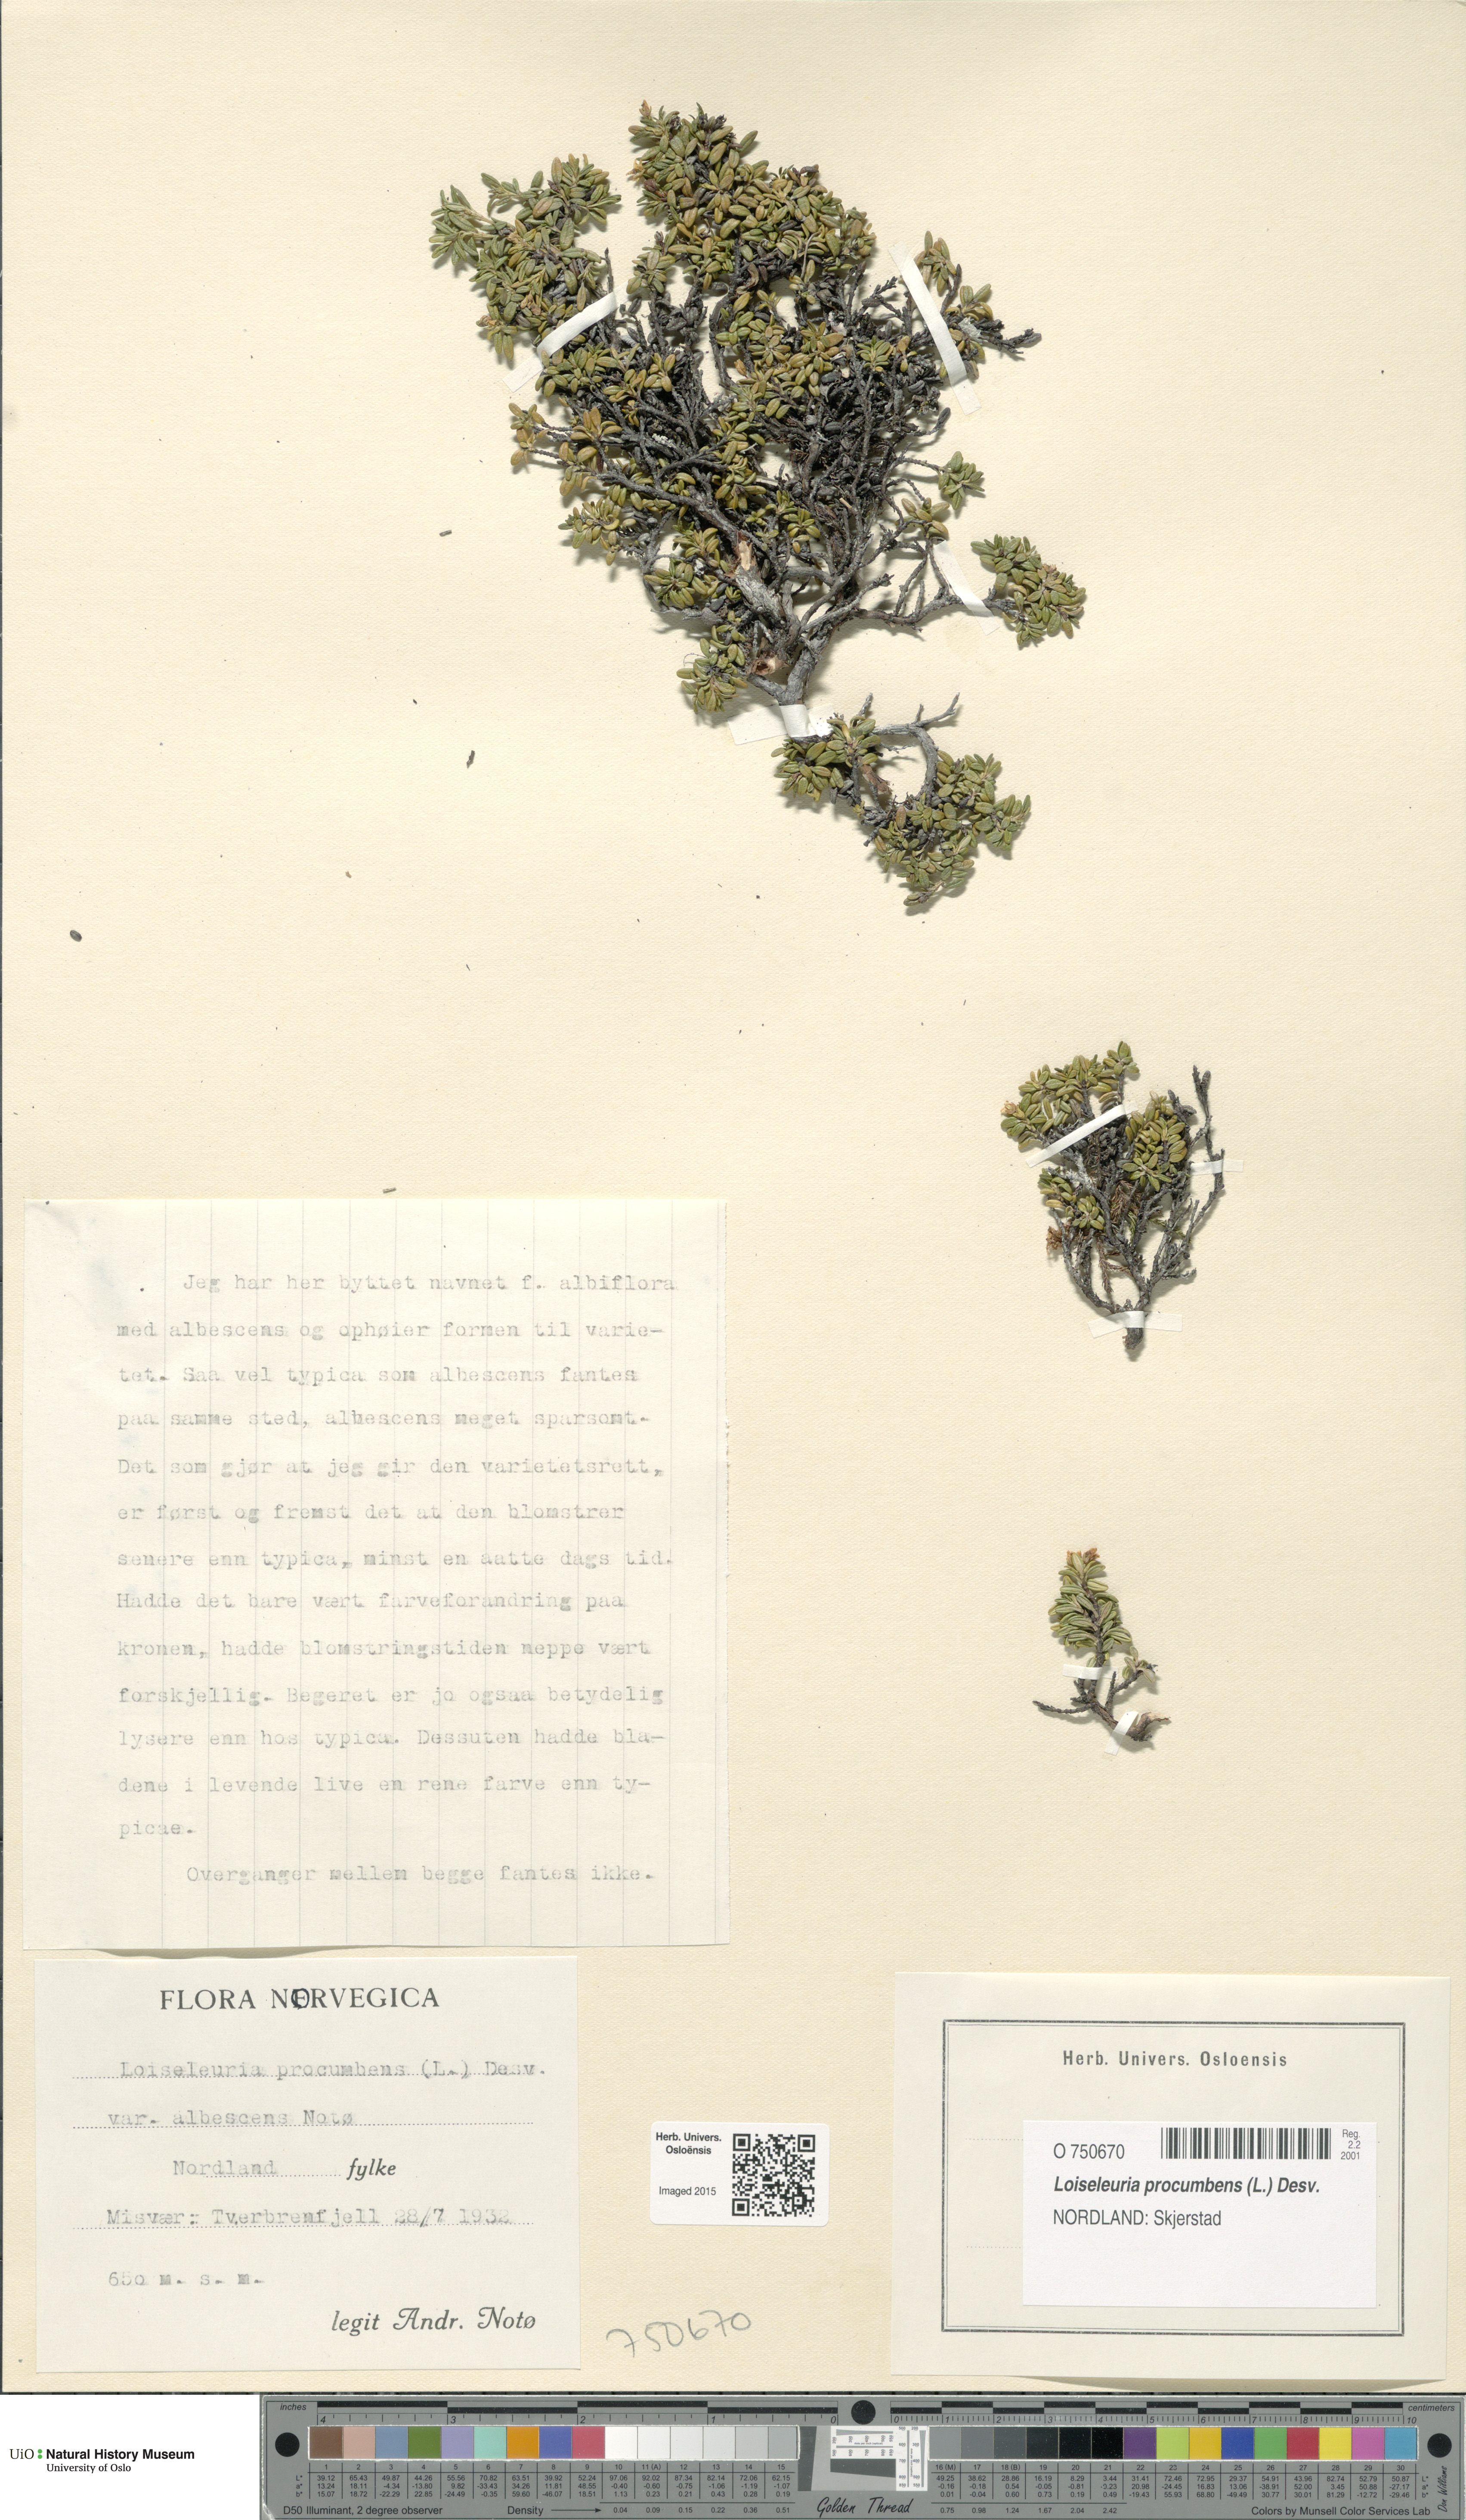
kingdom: Plantae
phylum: Tracheophyta
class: Magnoliopsida
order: Ericales
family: Ericaceae
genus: Kalmia
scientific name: Kalmia procumbens
